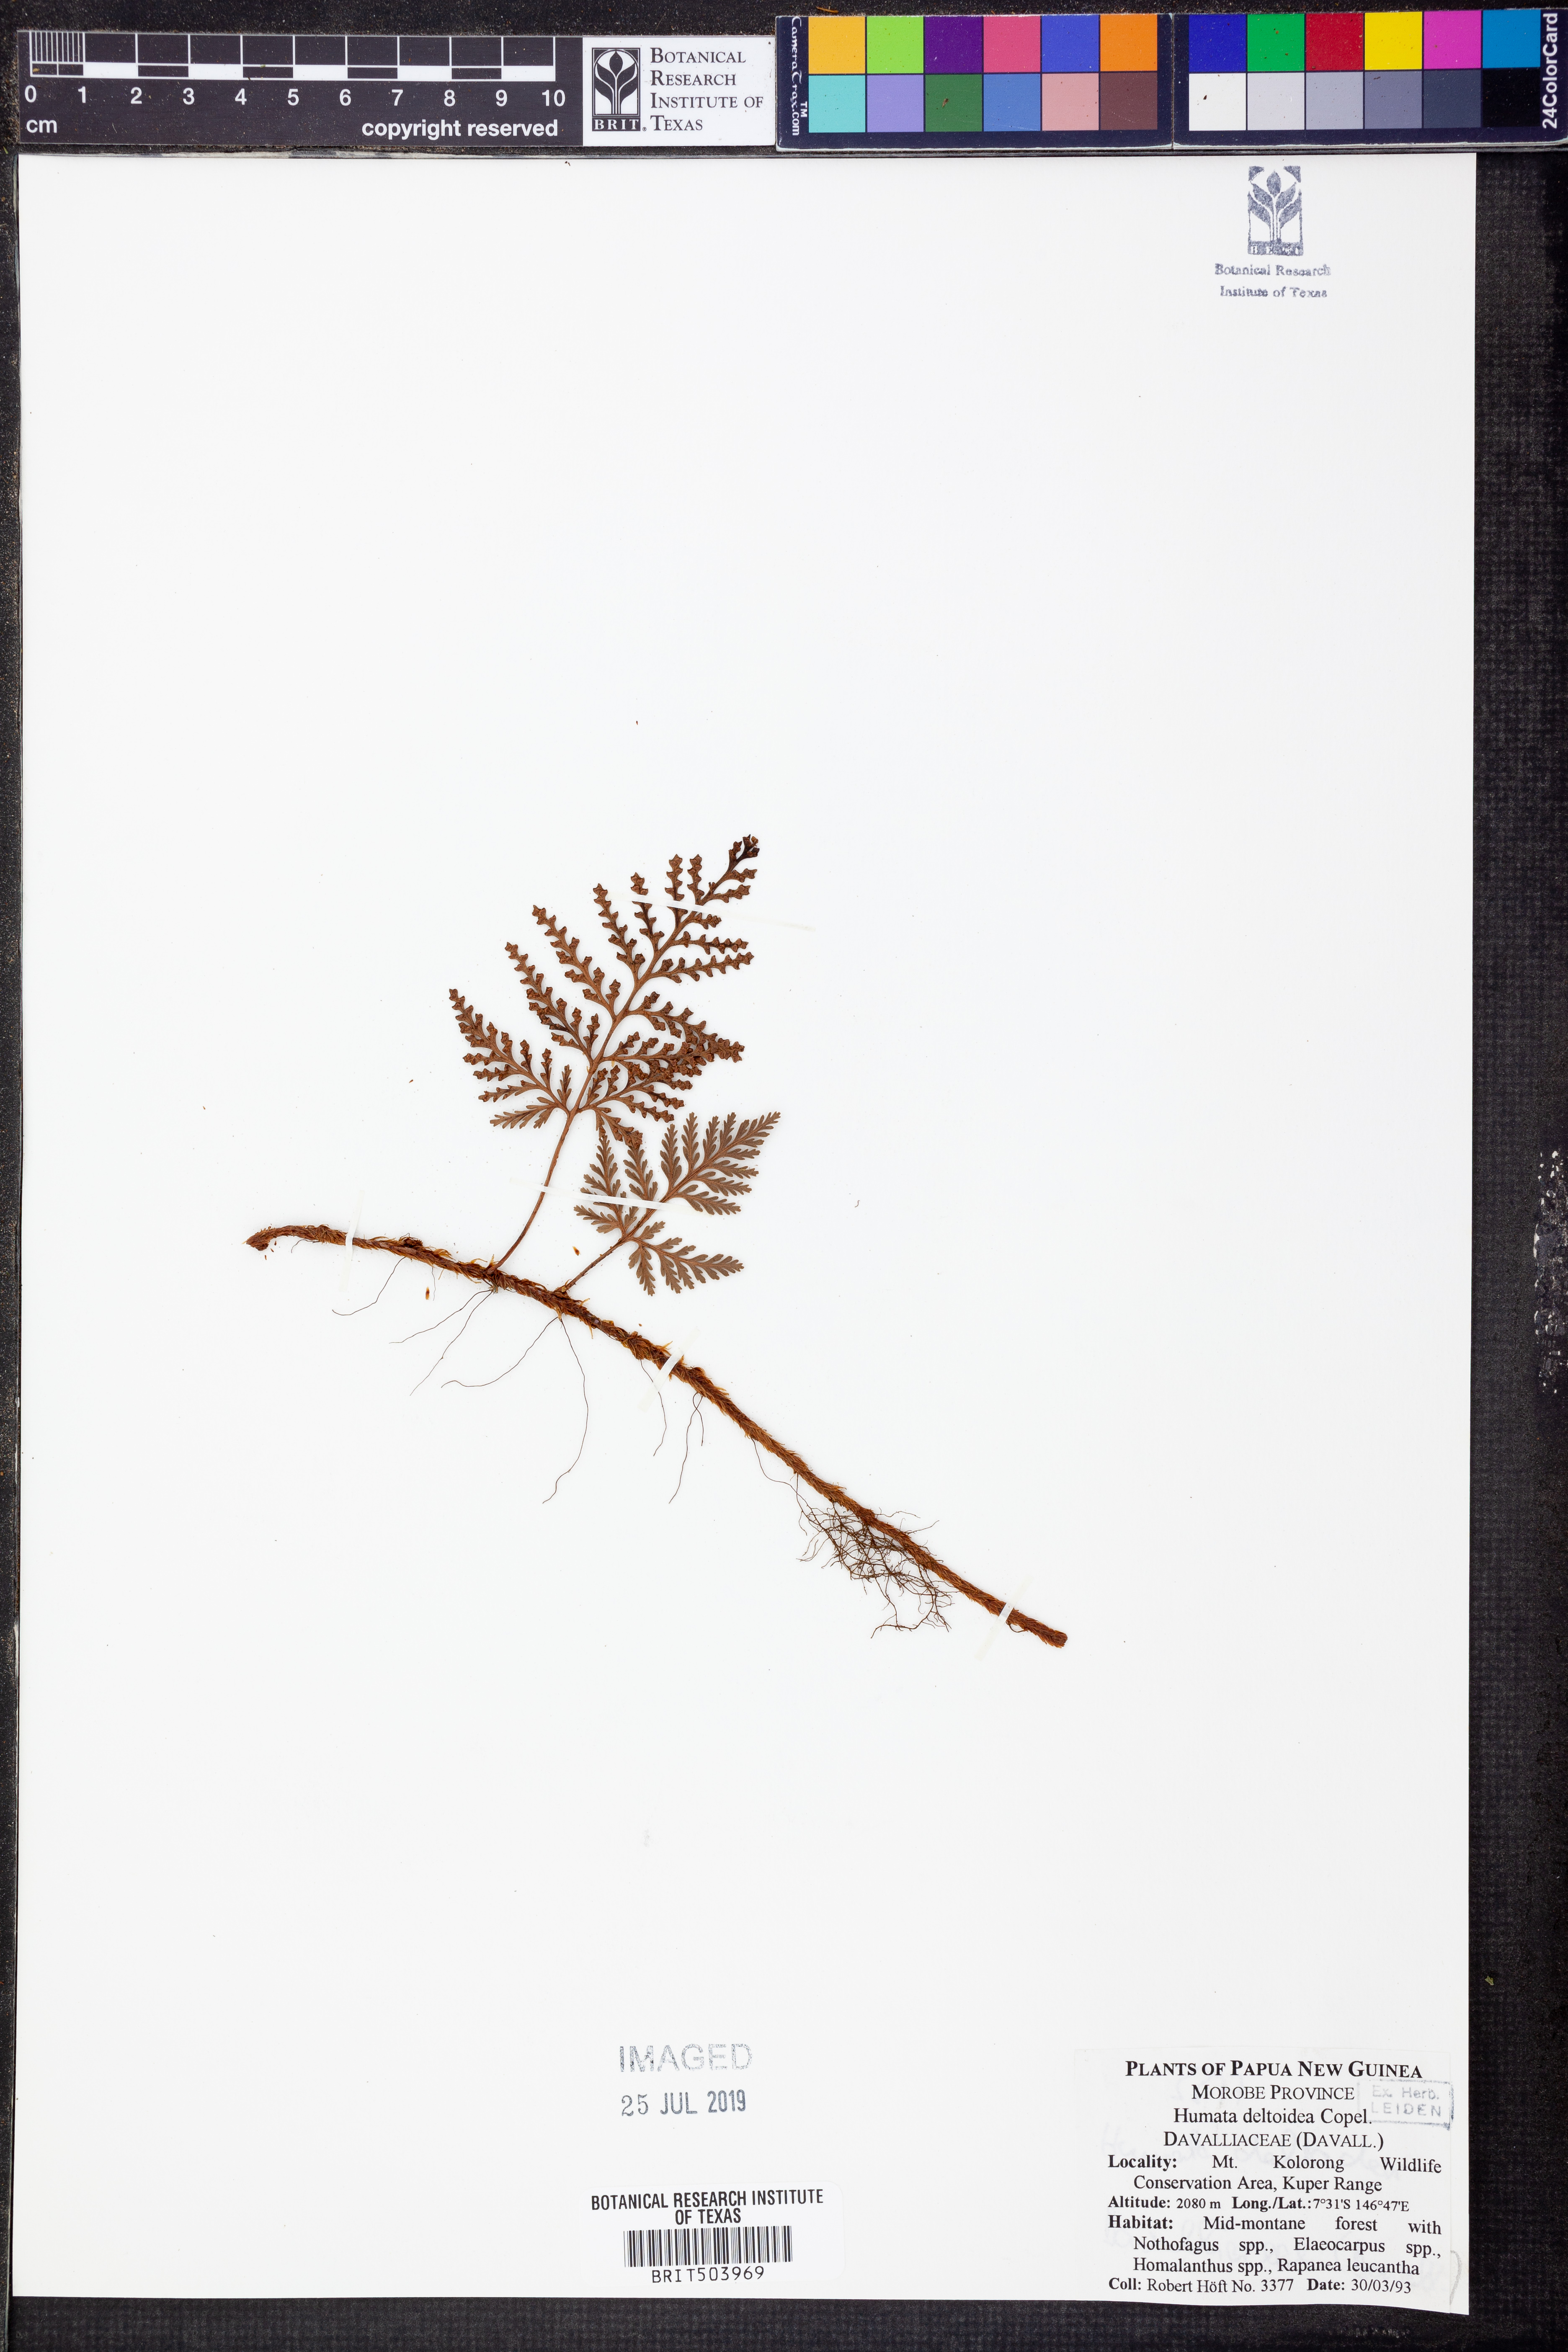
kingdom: Plantae
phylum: Tracheophyta
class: Polypodiopsida
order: Polypodiales
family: Davalliaceae
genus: Davallia
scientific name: Davallia repens
